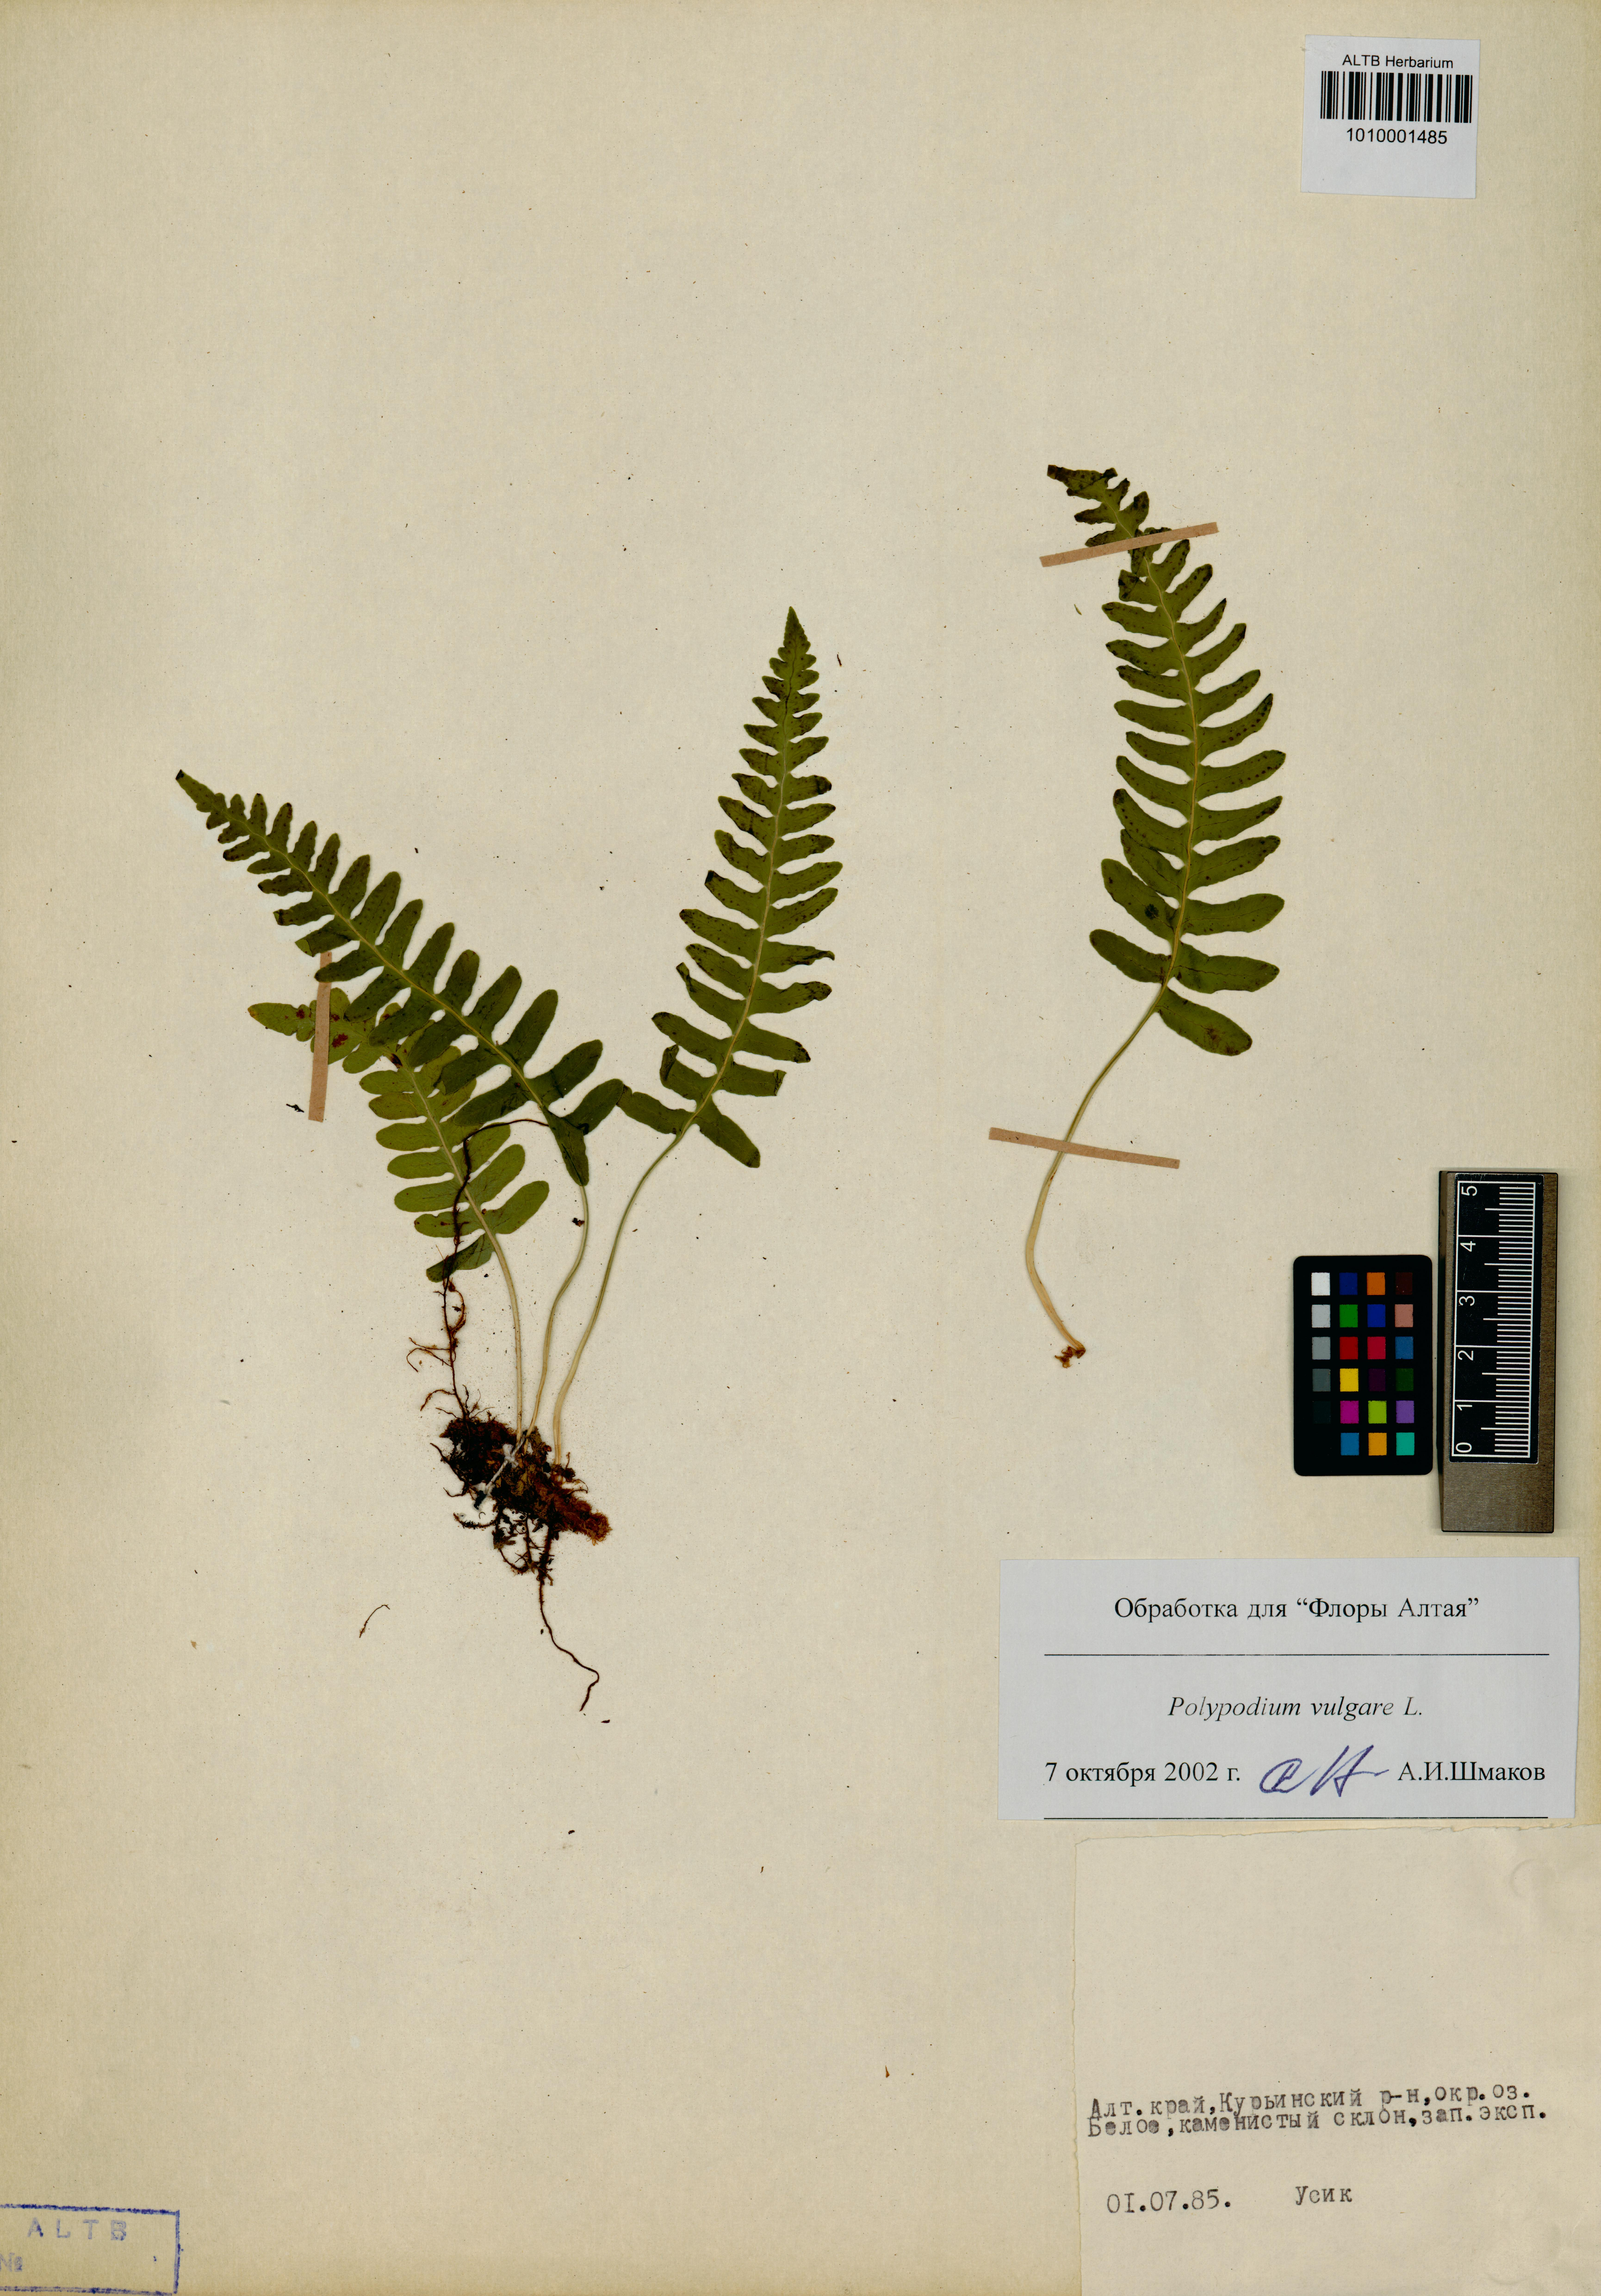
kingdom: Plantae
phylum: Tracheophyta
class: Polypodiopsida
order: Polypodiales
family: Polypodiaceae
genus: Polypodium
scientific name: Polypodium vulgare
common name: Common polypody
